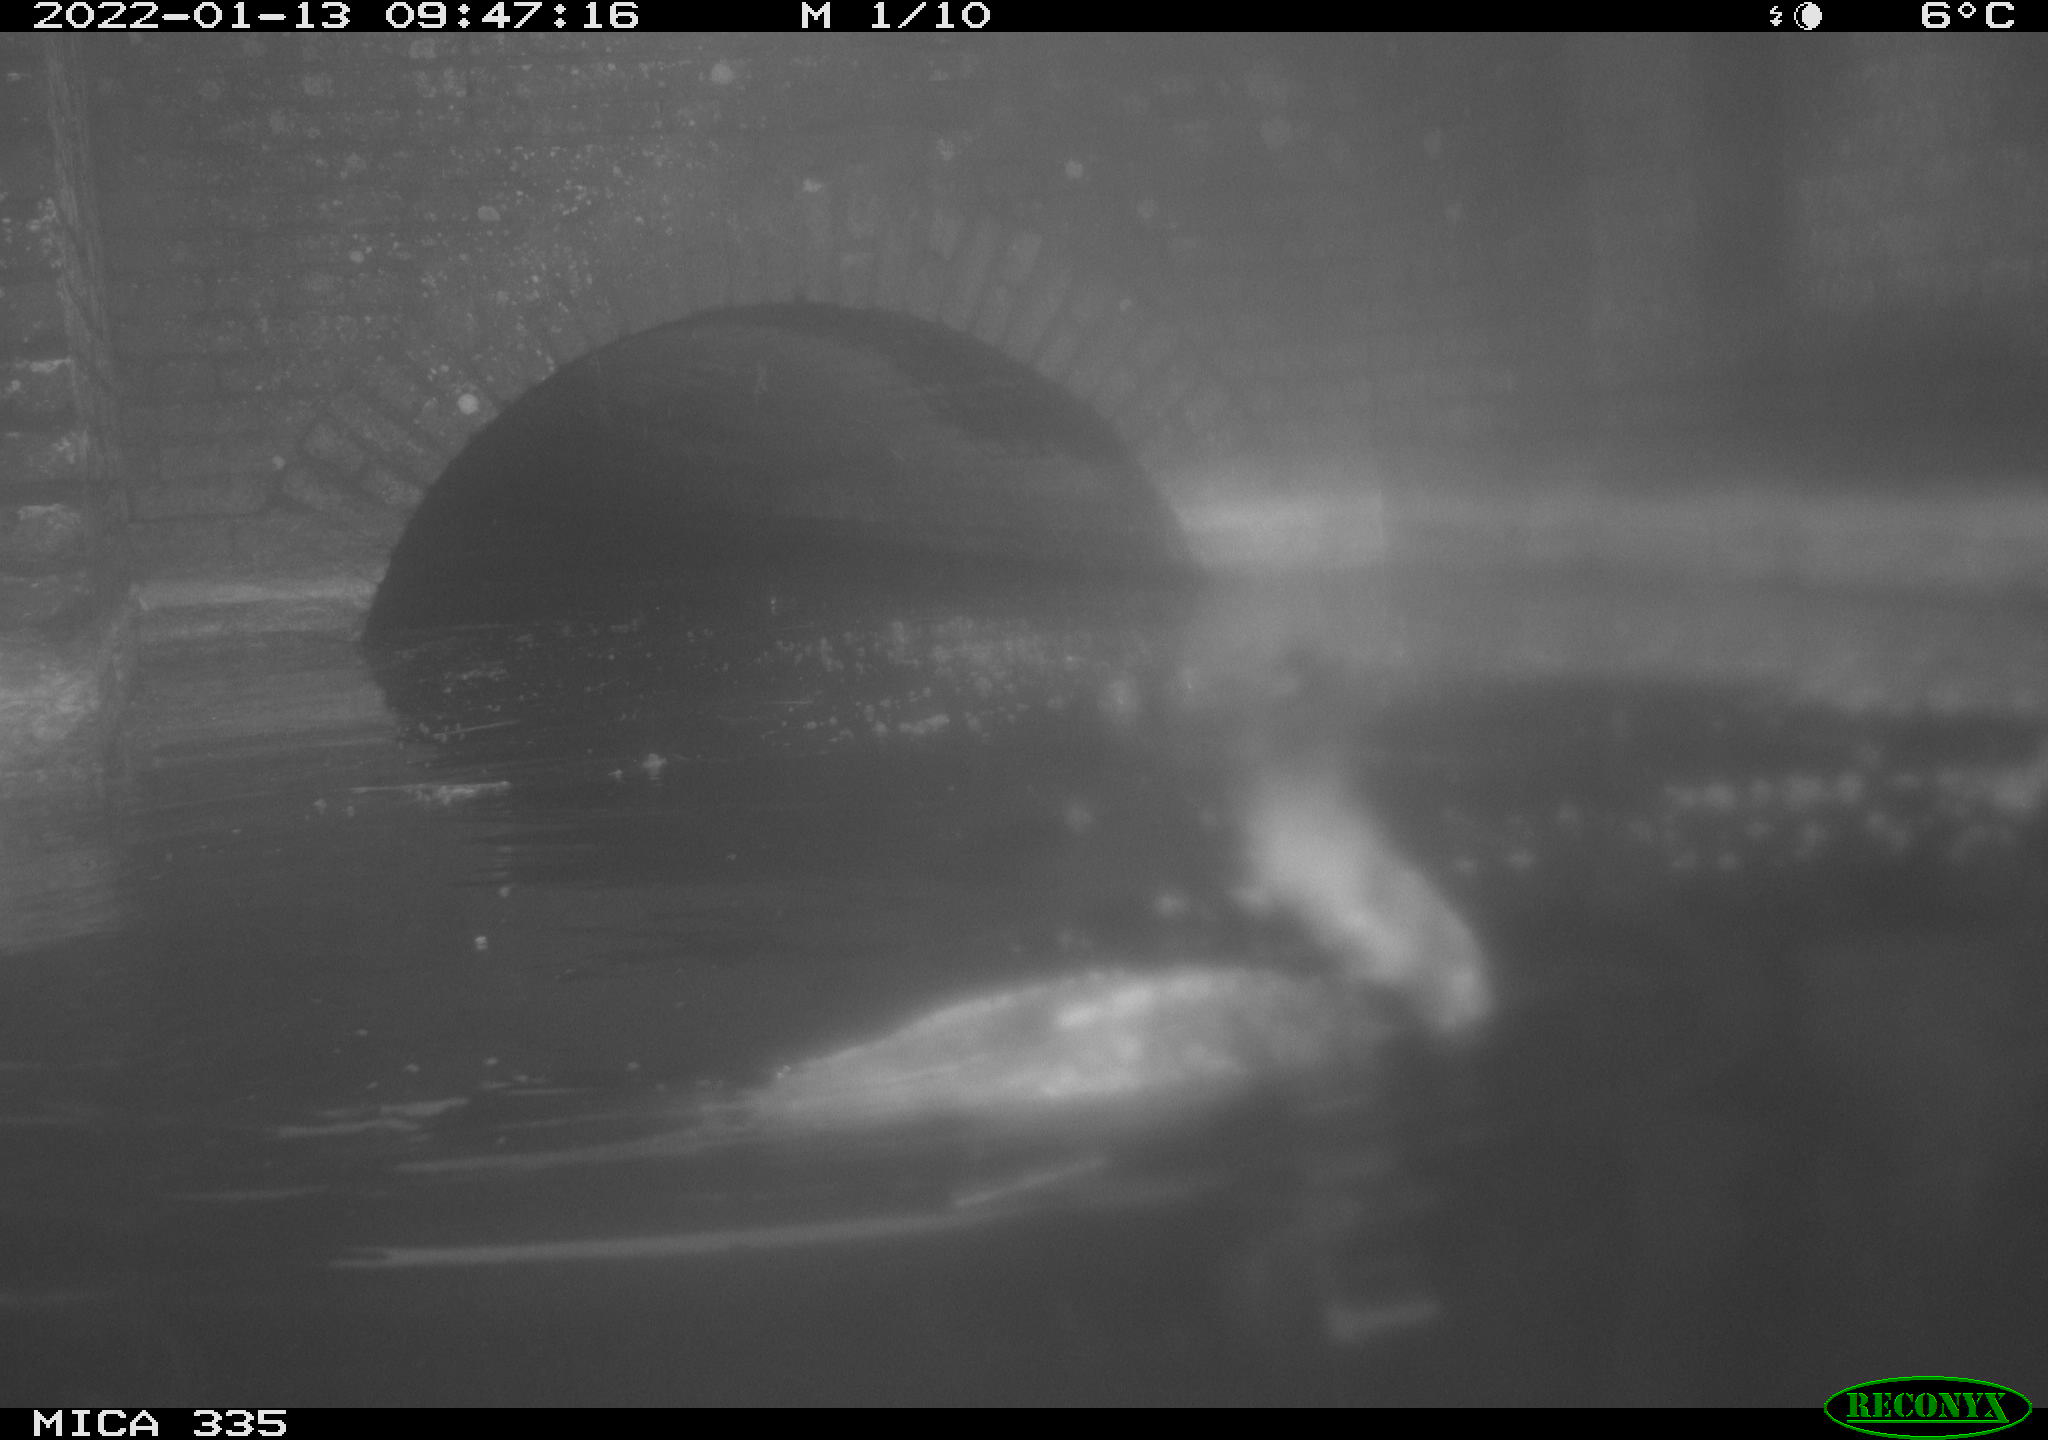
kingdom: Animalia
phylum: Chordata
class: Aves
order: Suliformes
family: Phalacrocoracidae
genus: Phalacrocorax
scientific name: Phalacrocorax carbo
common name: Great cormorant
